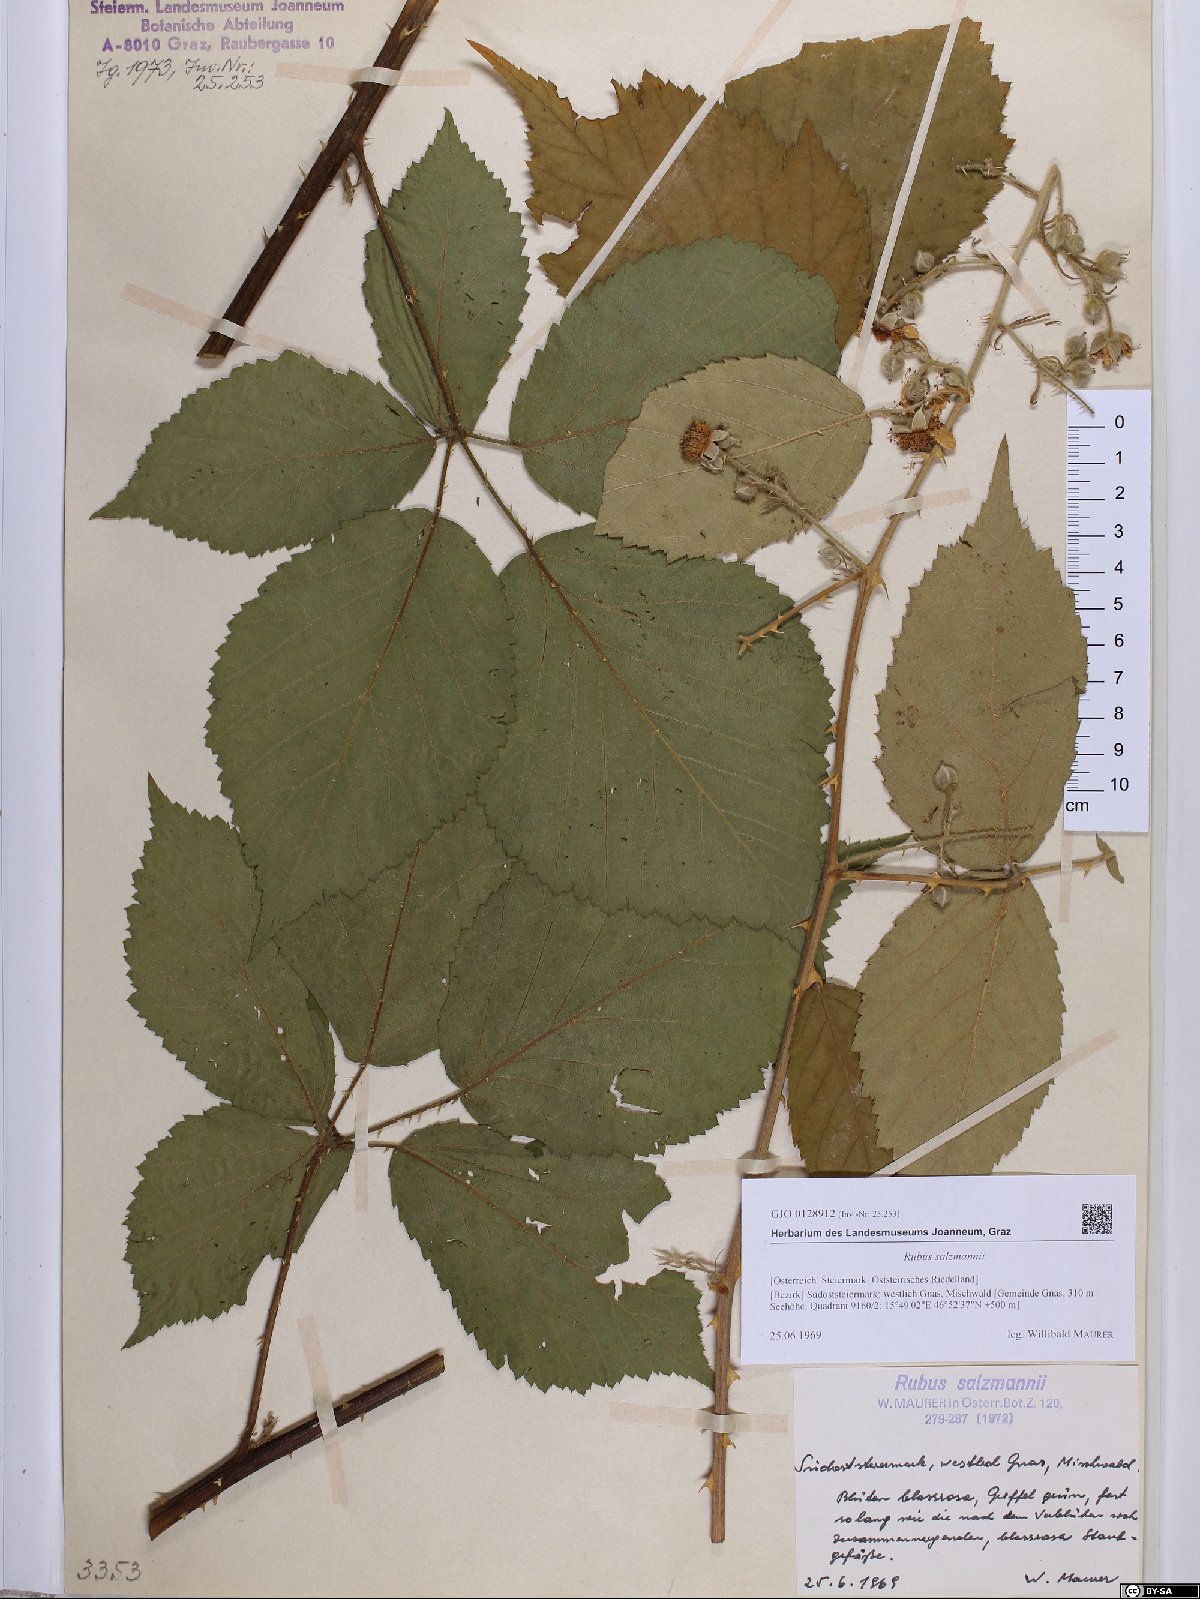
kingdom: Plantae
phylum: Tracheophyta
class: Magnoliopsida
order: Rosales
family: Rosaceae
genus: Rubus
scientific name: Rubus salzmannii
